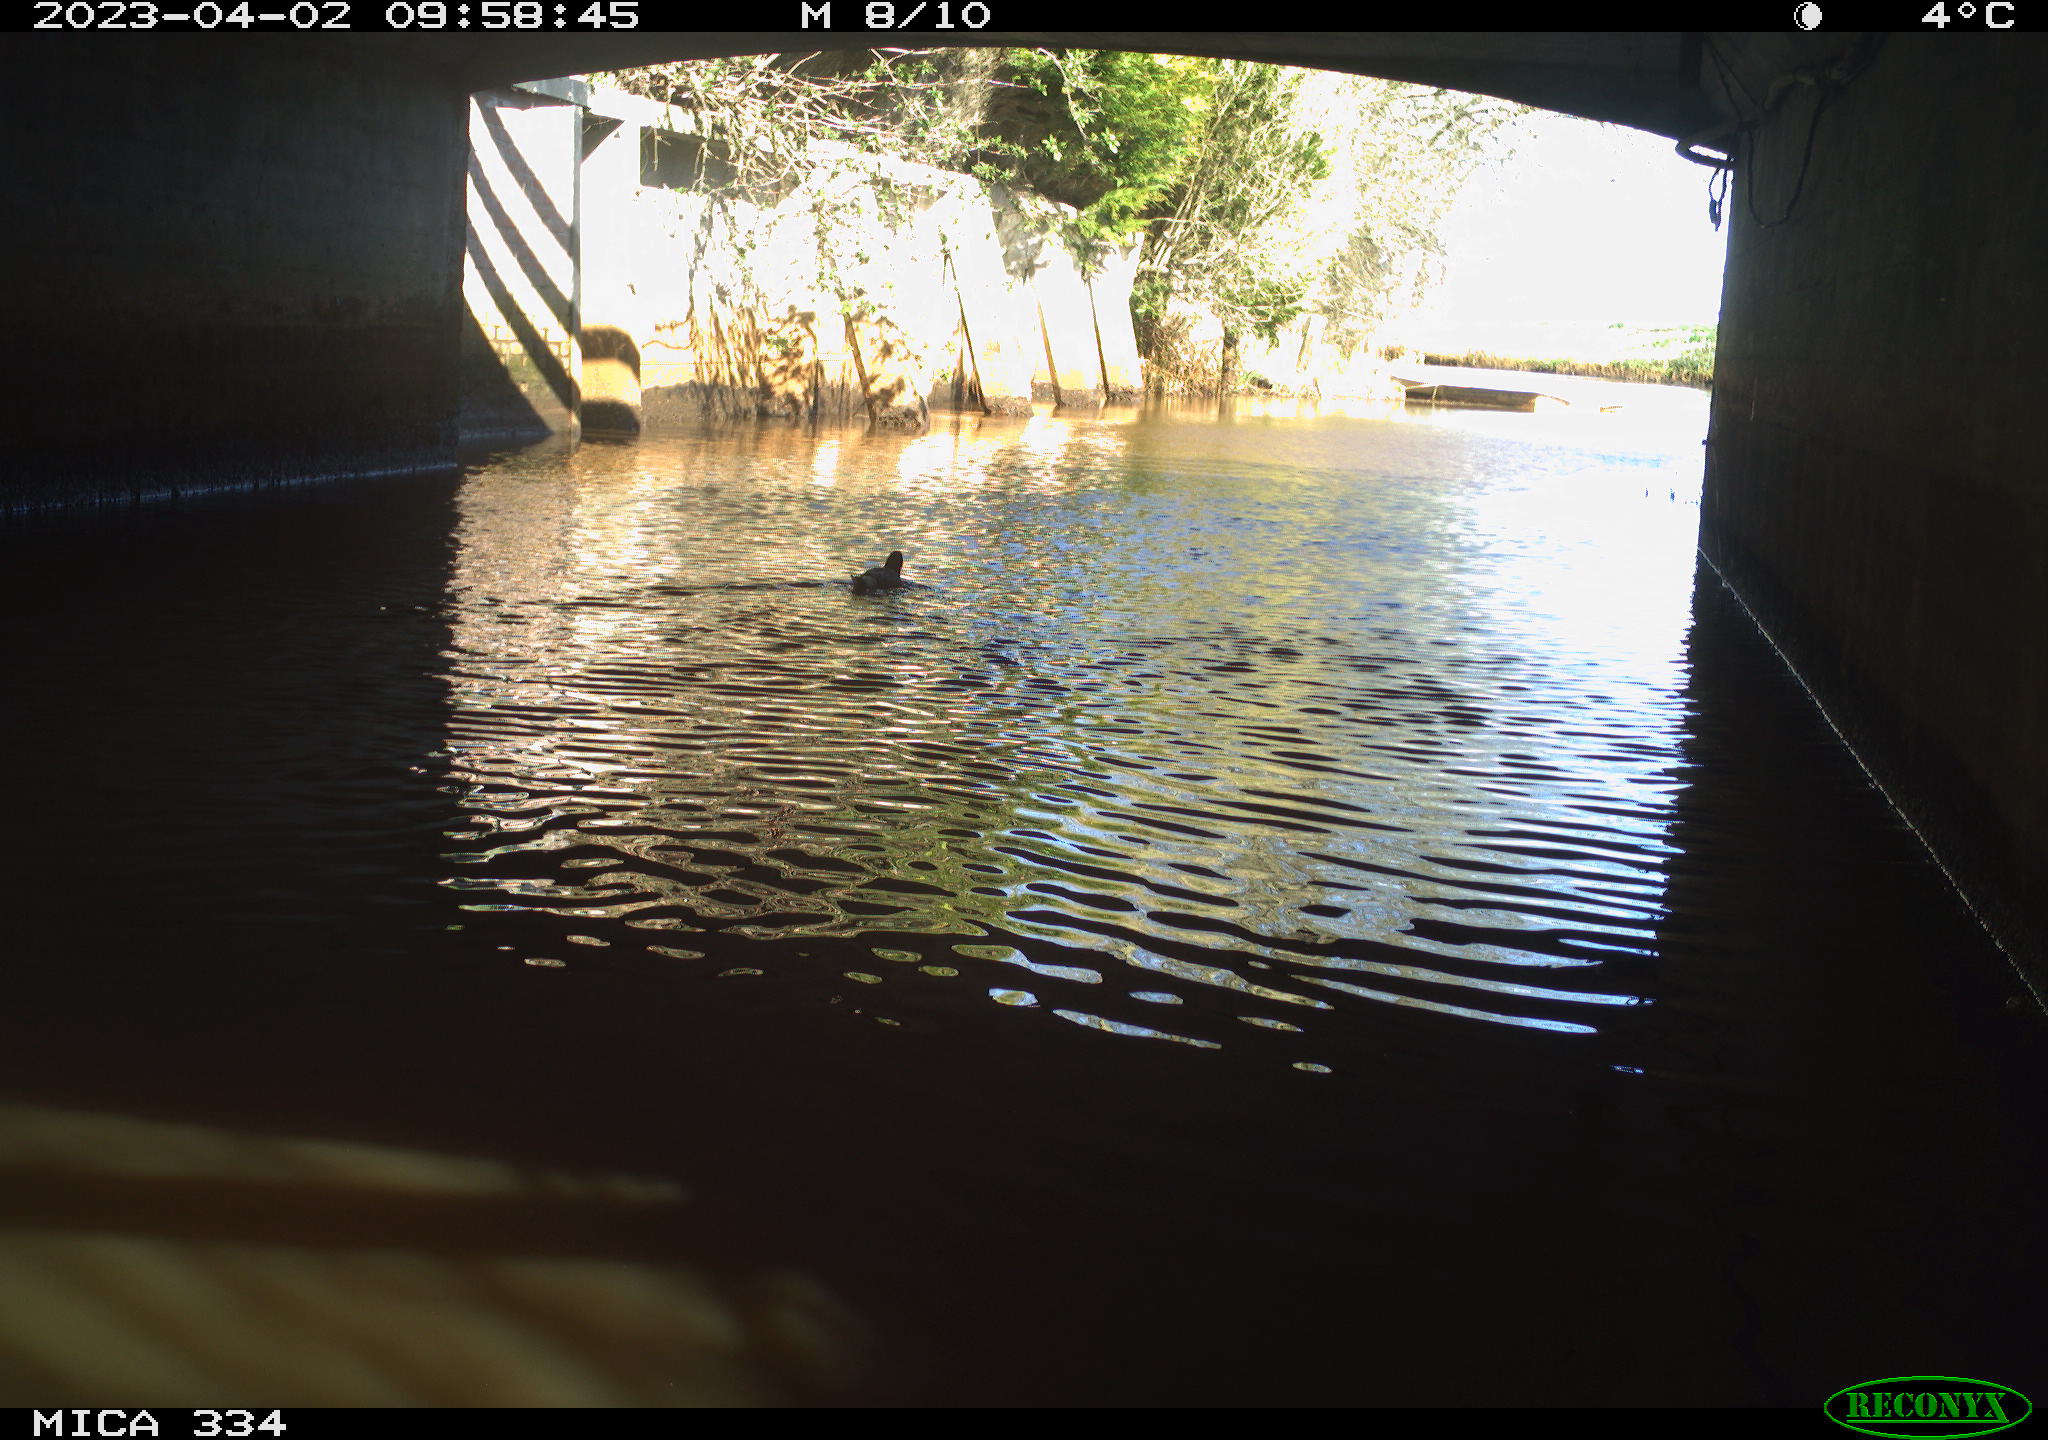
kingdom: Animalia
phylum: Chordata
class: Aves
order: Anseriformes
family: Anatidae
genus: Anas
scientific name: Anas
